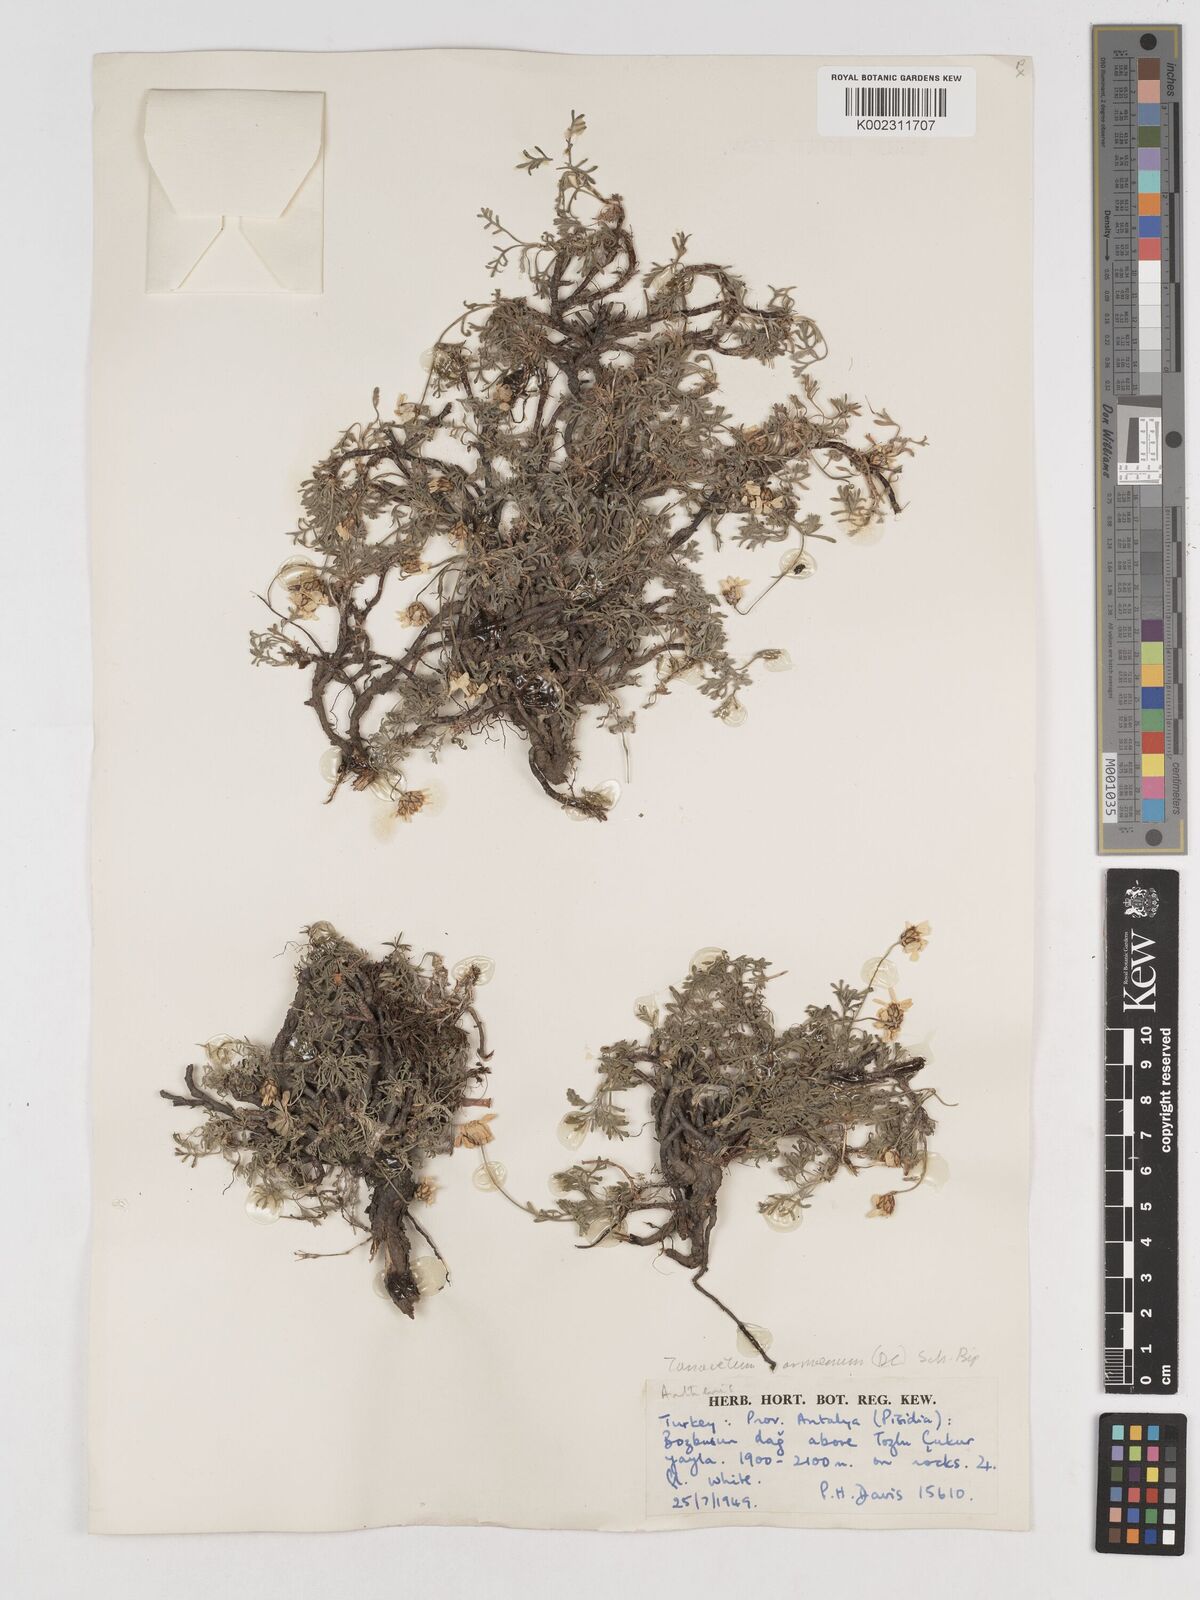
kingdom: Plantae
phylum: Tracheophyta
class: Magnoliopsida
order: Asterales
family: Asteraceae
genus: Tanacetum
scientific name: Tanacetum armenum
